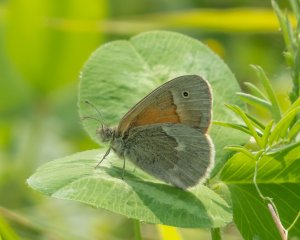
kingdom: Animalia
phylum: Arthropoda
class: Insecta
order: Lepidoptera
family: Nymphalidae
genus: Coenonympha
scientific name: Coenonympha tullia
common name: Large Heath
